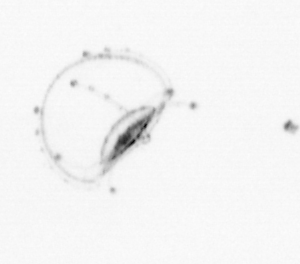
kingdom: Animalia
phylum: Cnidaria
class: Hydrozoa
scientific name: Hydrozoa
